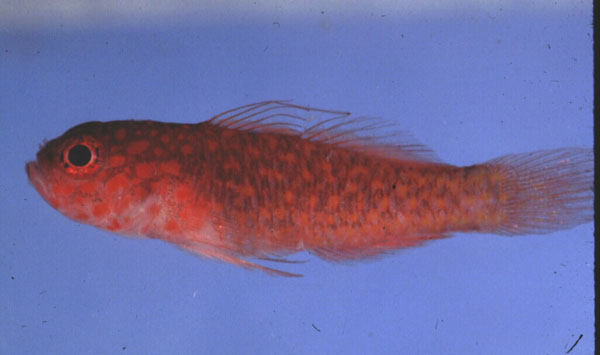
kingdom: Animalia
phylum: Chordata
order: Perciformes
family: Gobiidae
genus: Trimma
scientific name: Trimma flammeum
